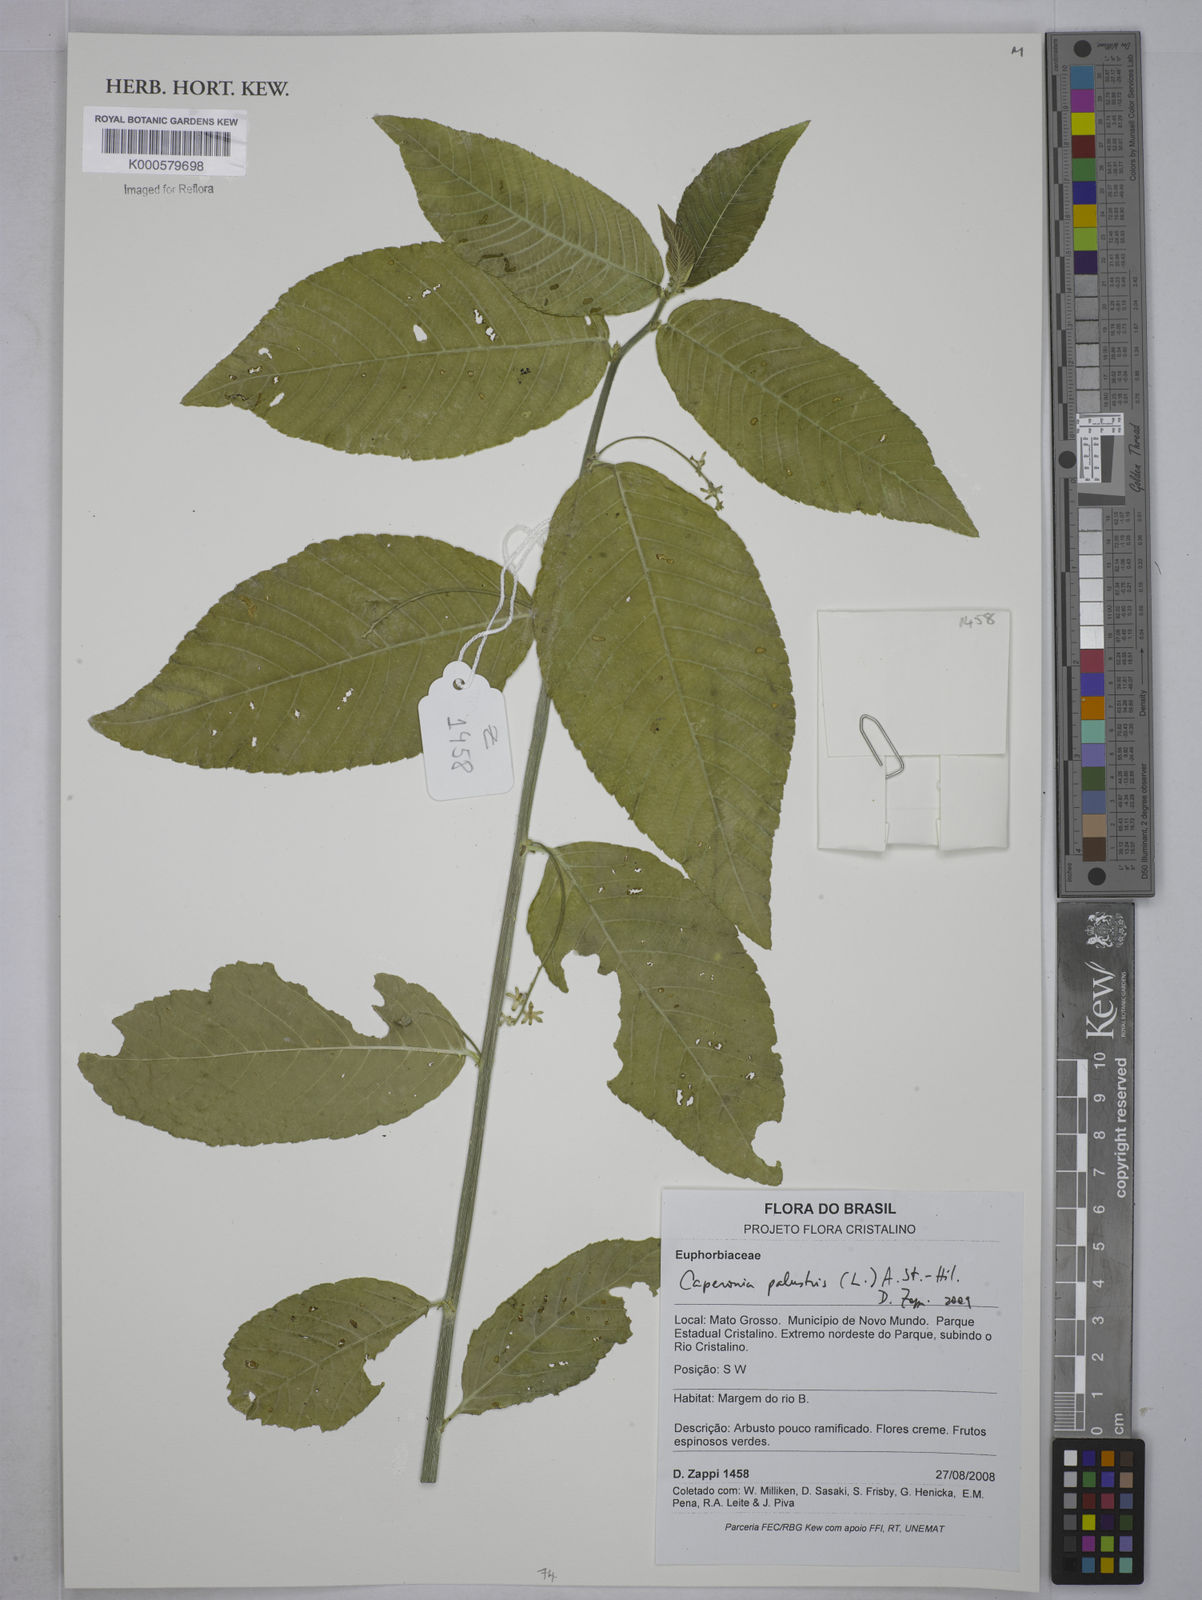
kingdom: Plantae
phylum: Tracheophyta
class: Magnoliopsida
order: Malpighiales
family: Euphorbiaceae
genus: Caperonia
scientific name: Caperonia palustris
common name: Sacatrapo
